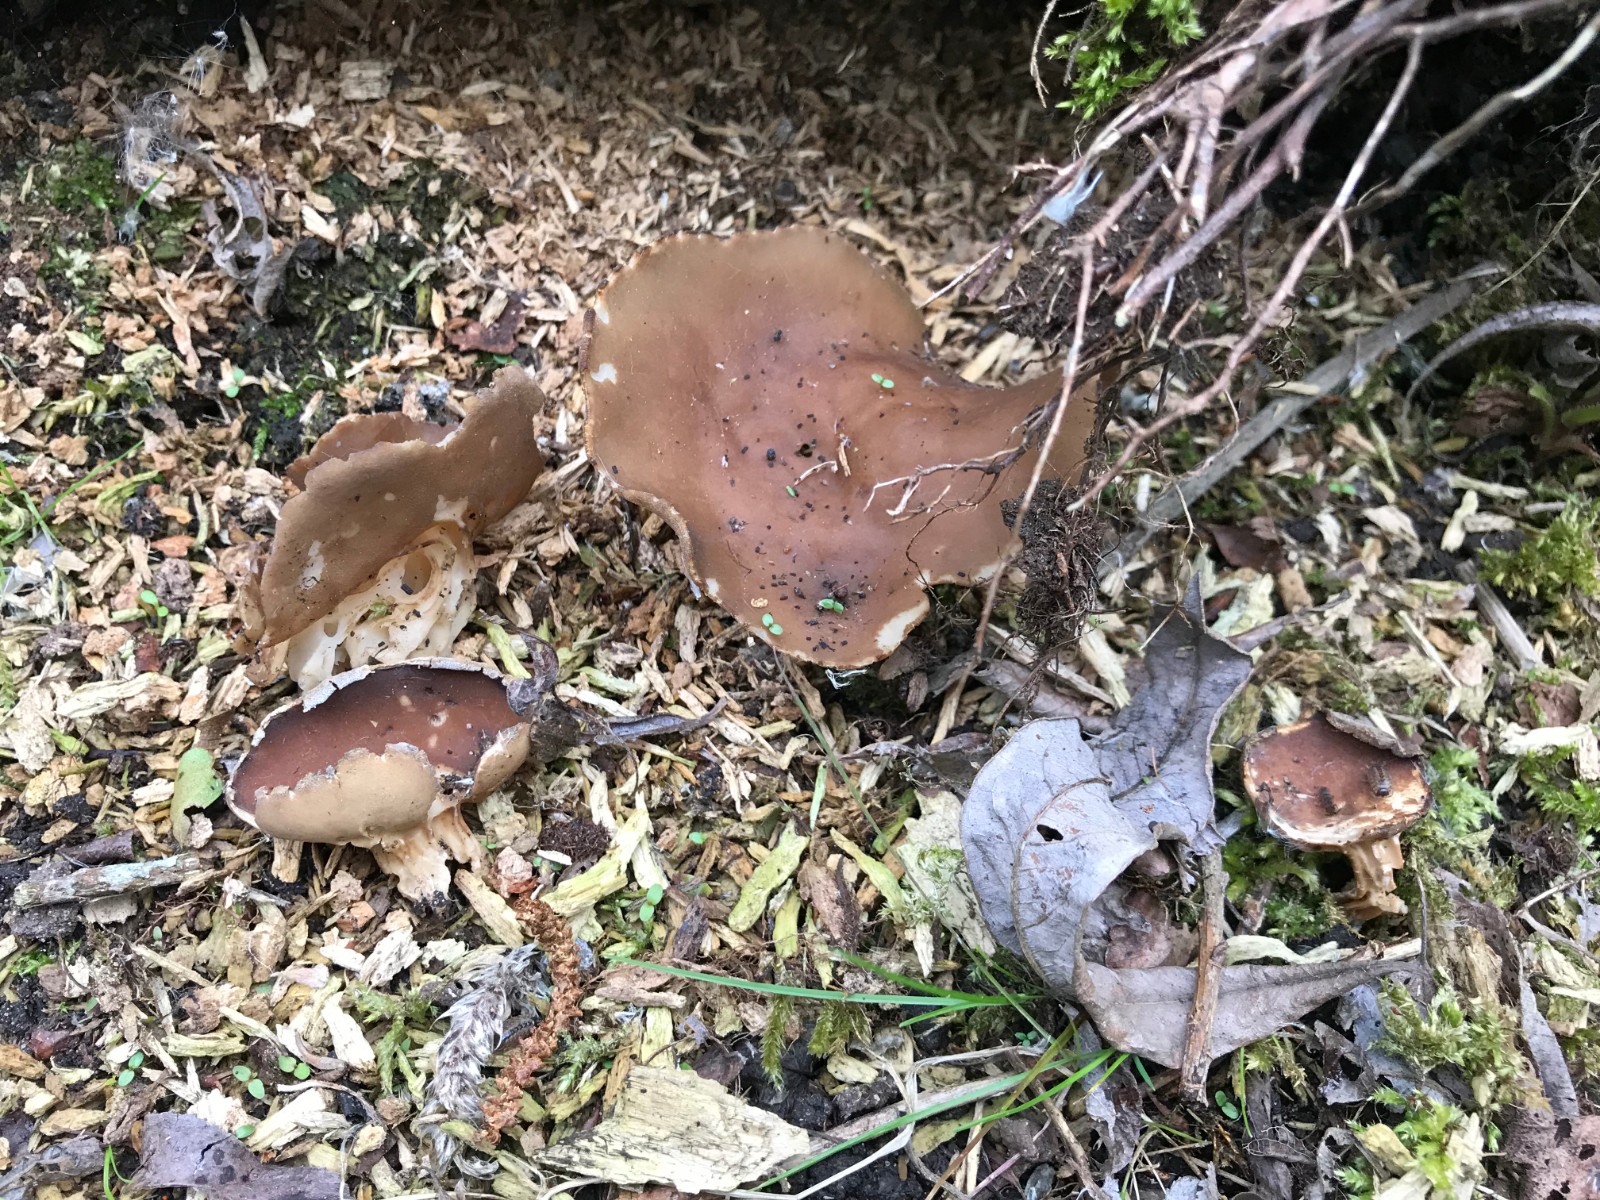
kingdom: Fungi
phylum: Ascomycota
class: Pezizomycetes
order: Pezizales
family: Helvellaceae
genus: Helvella
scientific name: Helvella acetabulum
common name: pokal-foldhat
